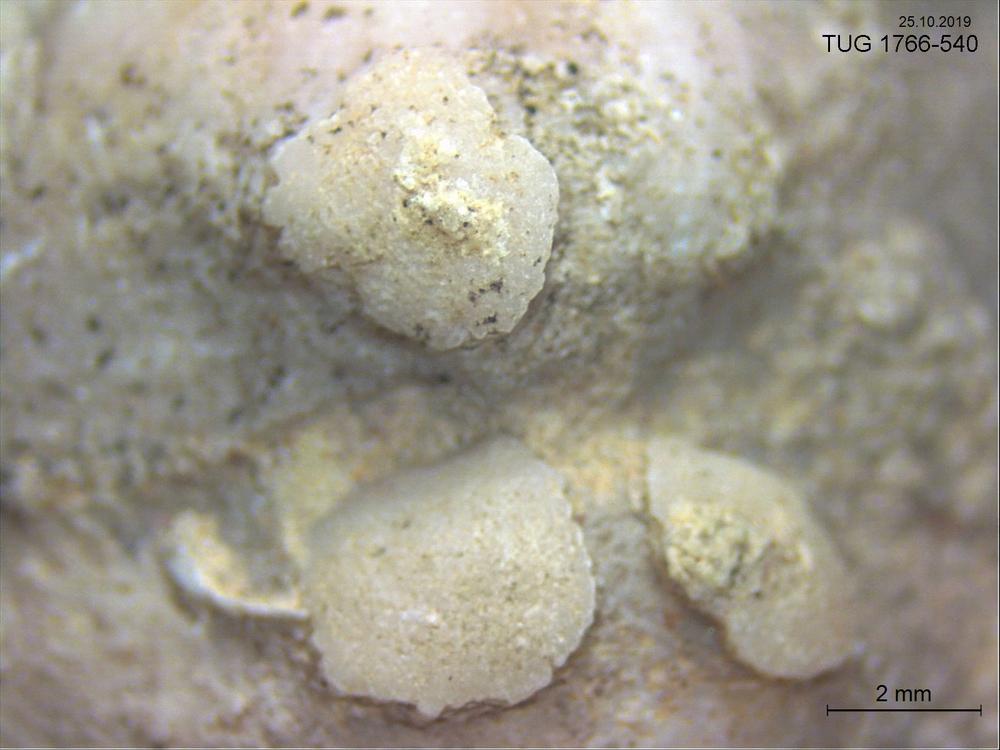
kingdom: Animalia
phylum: Brachiopoda
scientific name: Brachiopoda
